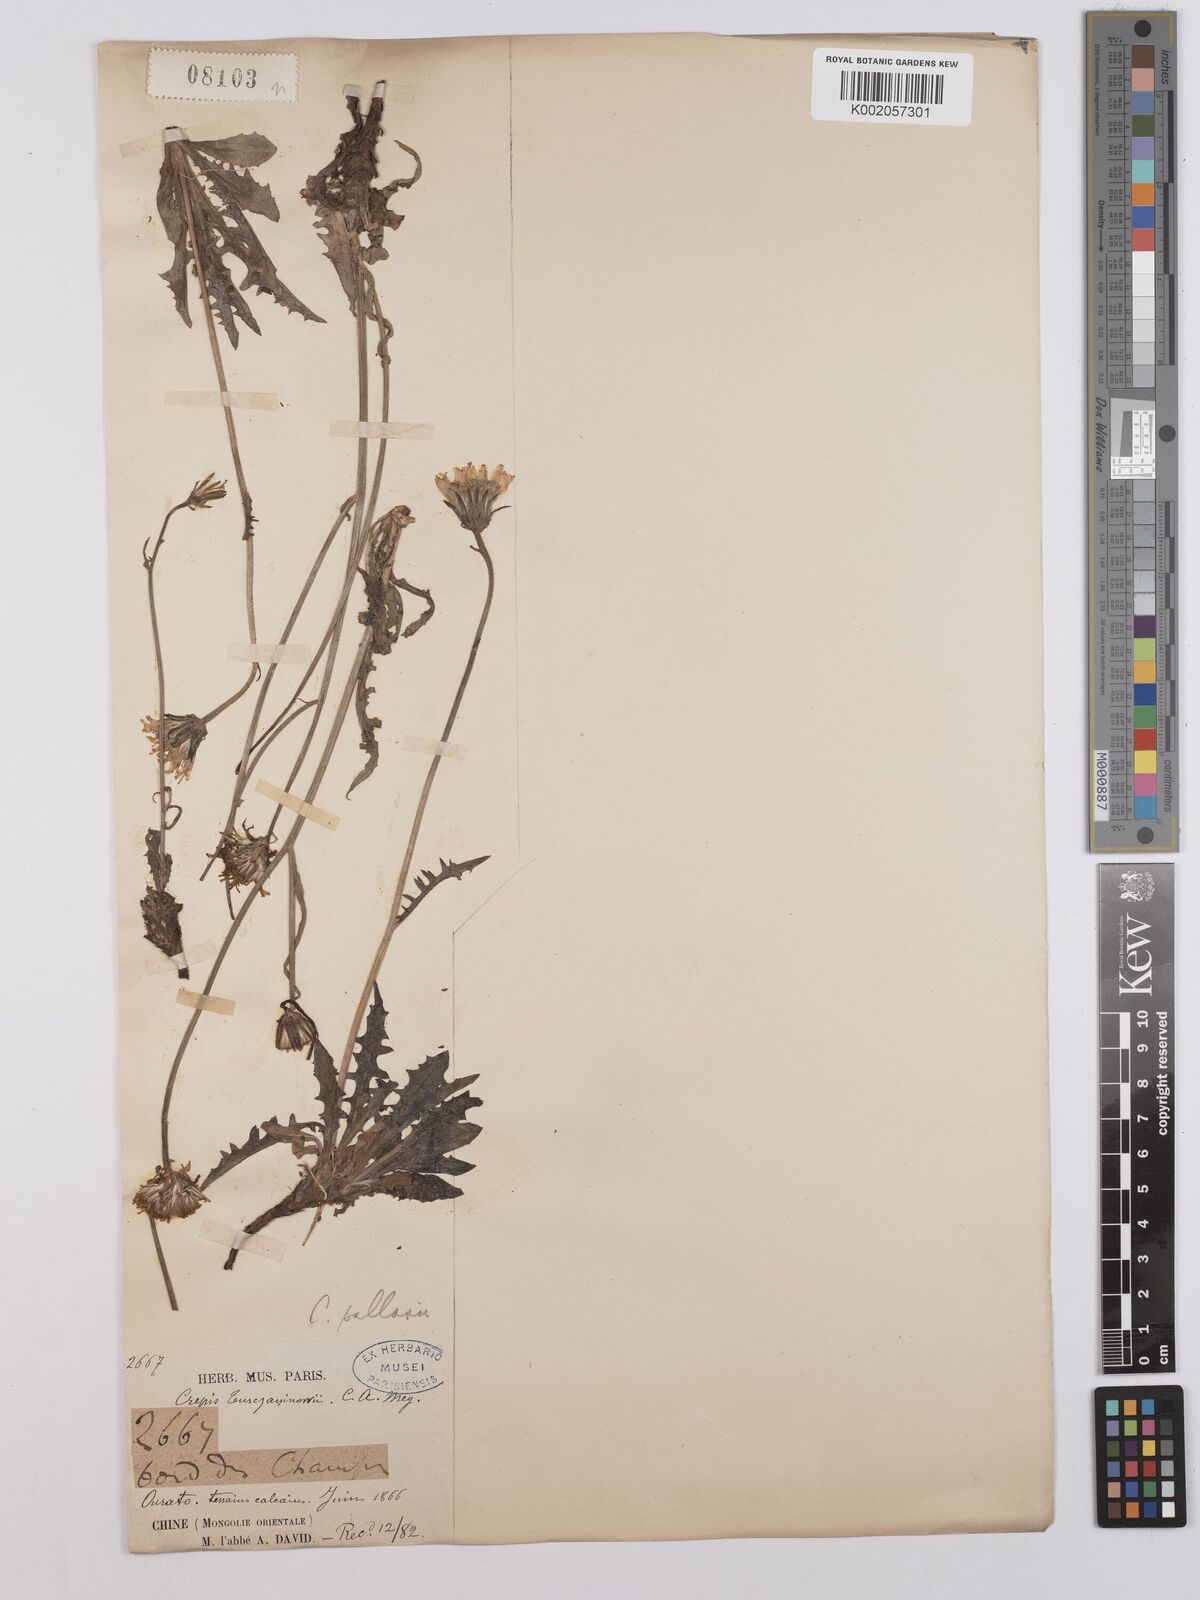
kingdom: Plantae
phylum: Tracheophyta
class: Magnoliopsida
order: Asterales
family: Asteraceae
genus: Crepis
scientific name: Crepis crocea
